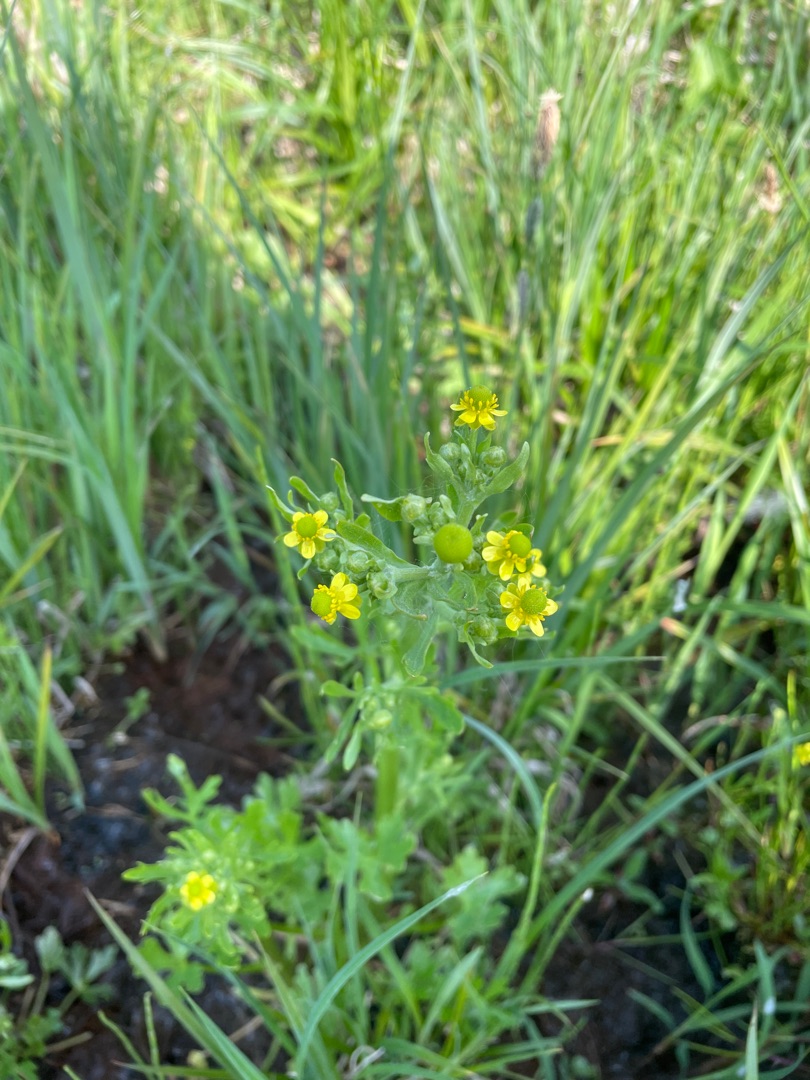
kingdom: Plantae
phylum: Tracheophyta
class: Magnoliopsida
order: Ranunculales
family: Ranunculaceae
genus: Ranunculus
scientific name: Ranunculus sceleratus
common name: Tigger-ranunkel
